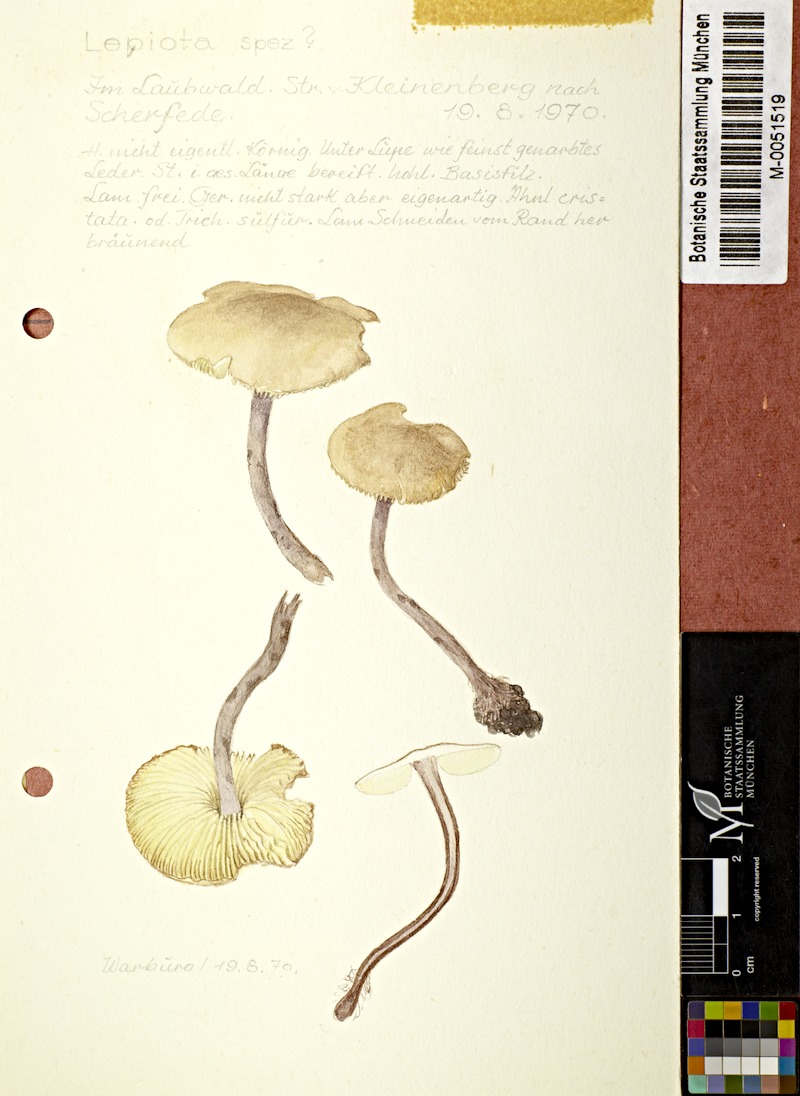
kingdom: Fungi
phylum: Basidiomycota
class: Agaricomycetes
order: Agaricales
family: Agaricaceae
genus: Cystolepiota
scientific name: Cystolepiota bucknallii
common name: Lilac dapperling
